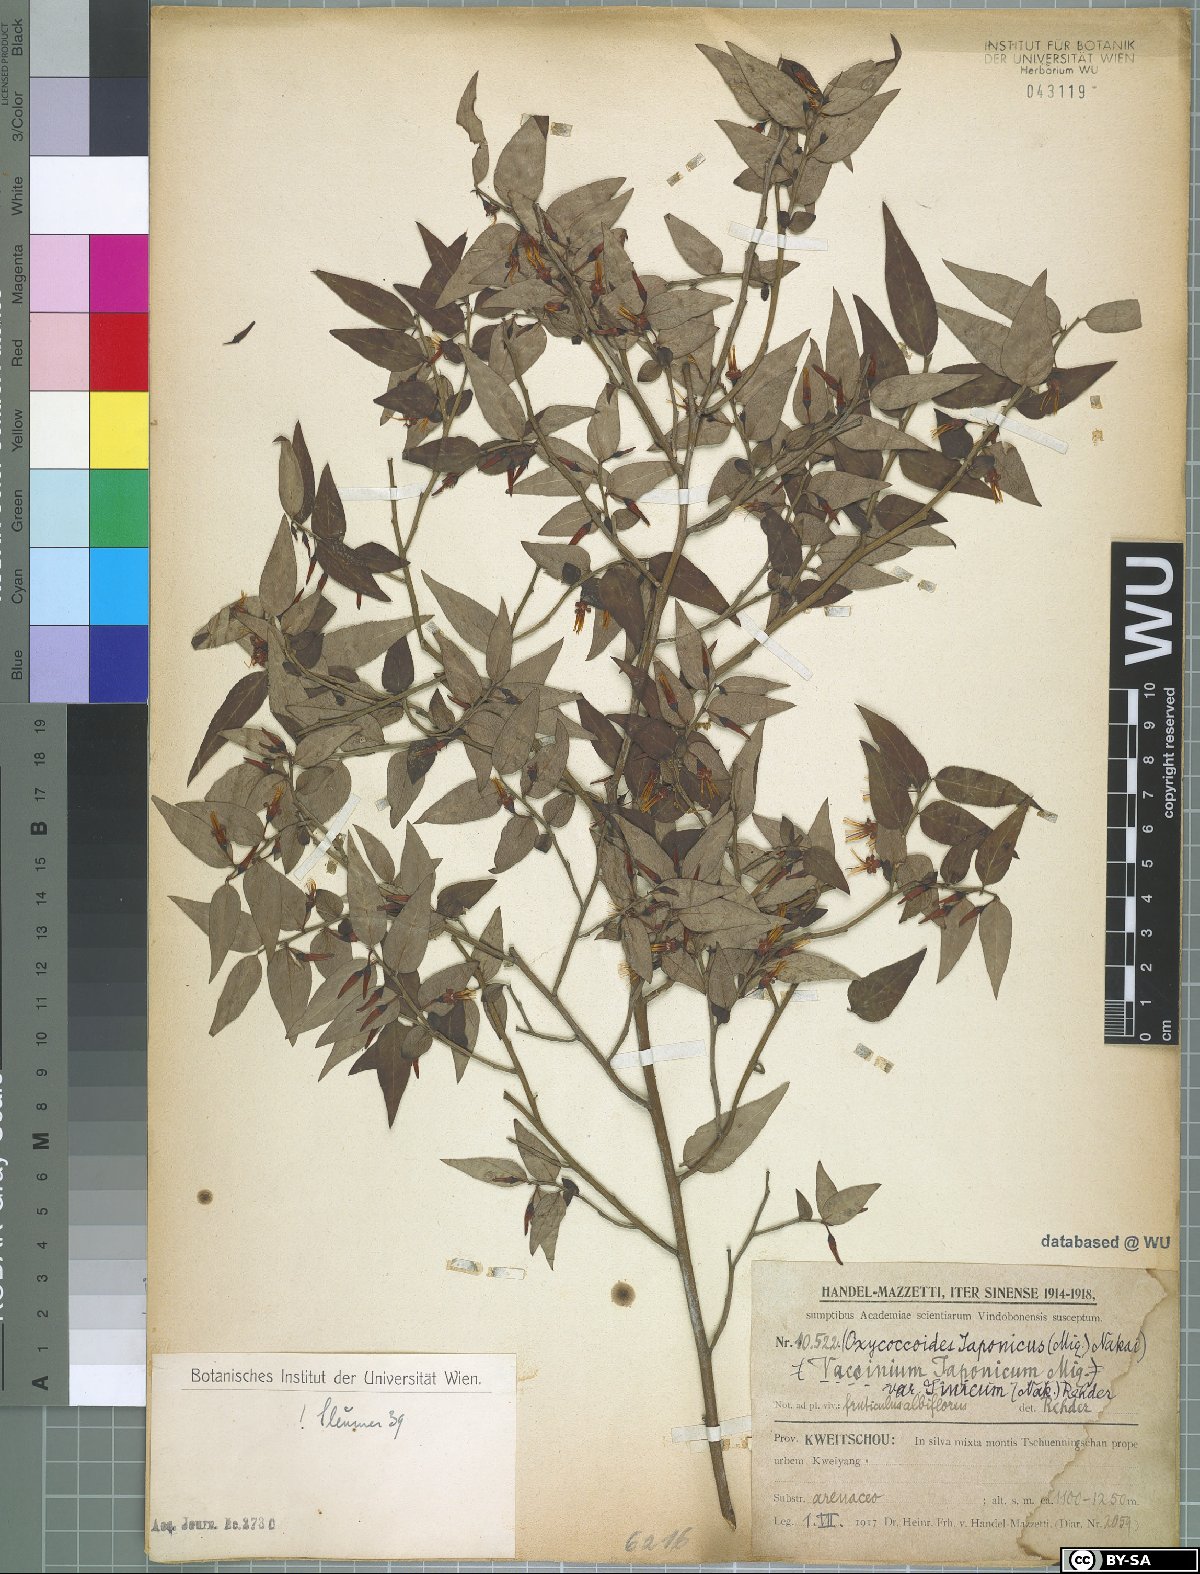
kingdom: Plantae
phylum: Tracheophyta
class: Magnoliopsida
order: Ericales
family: Ericaceae
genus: Vaccinium
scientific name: Vaccinium japonicum
